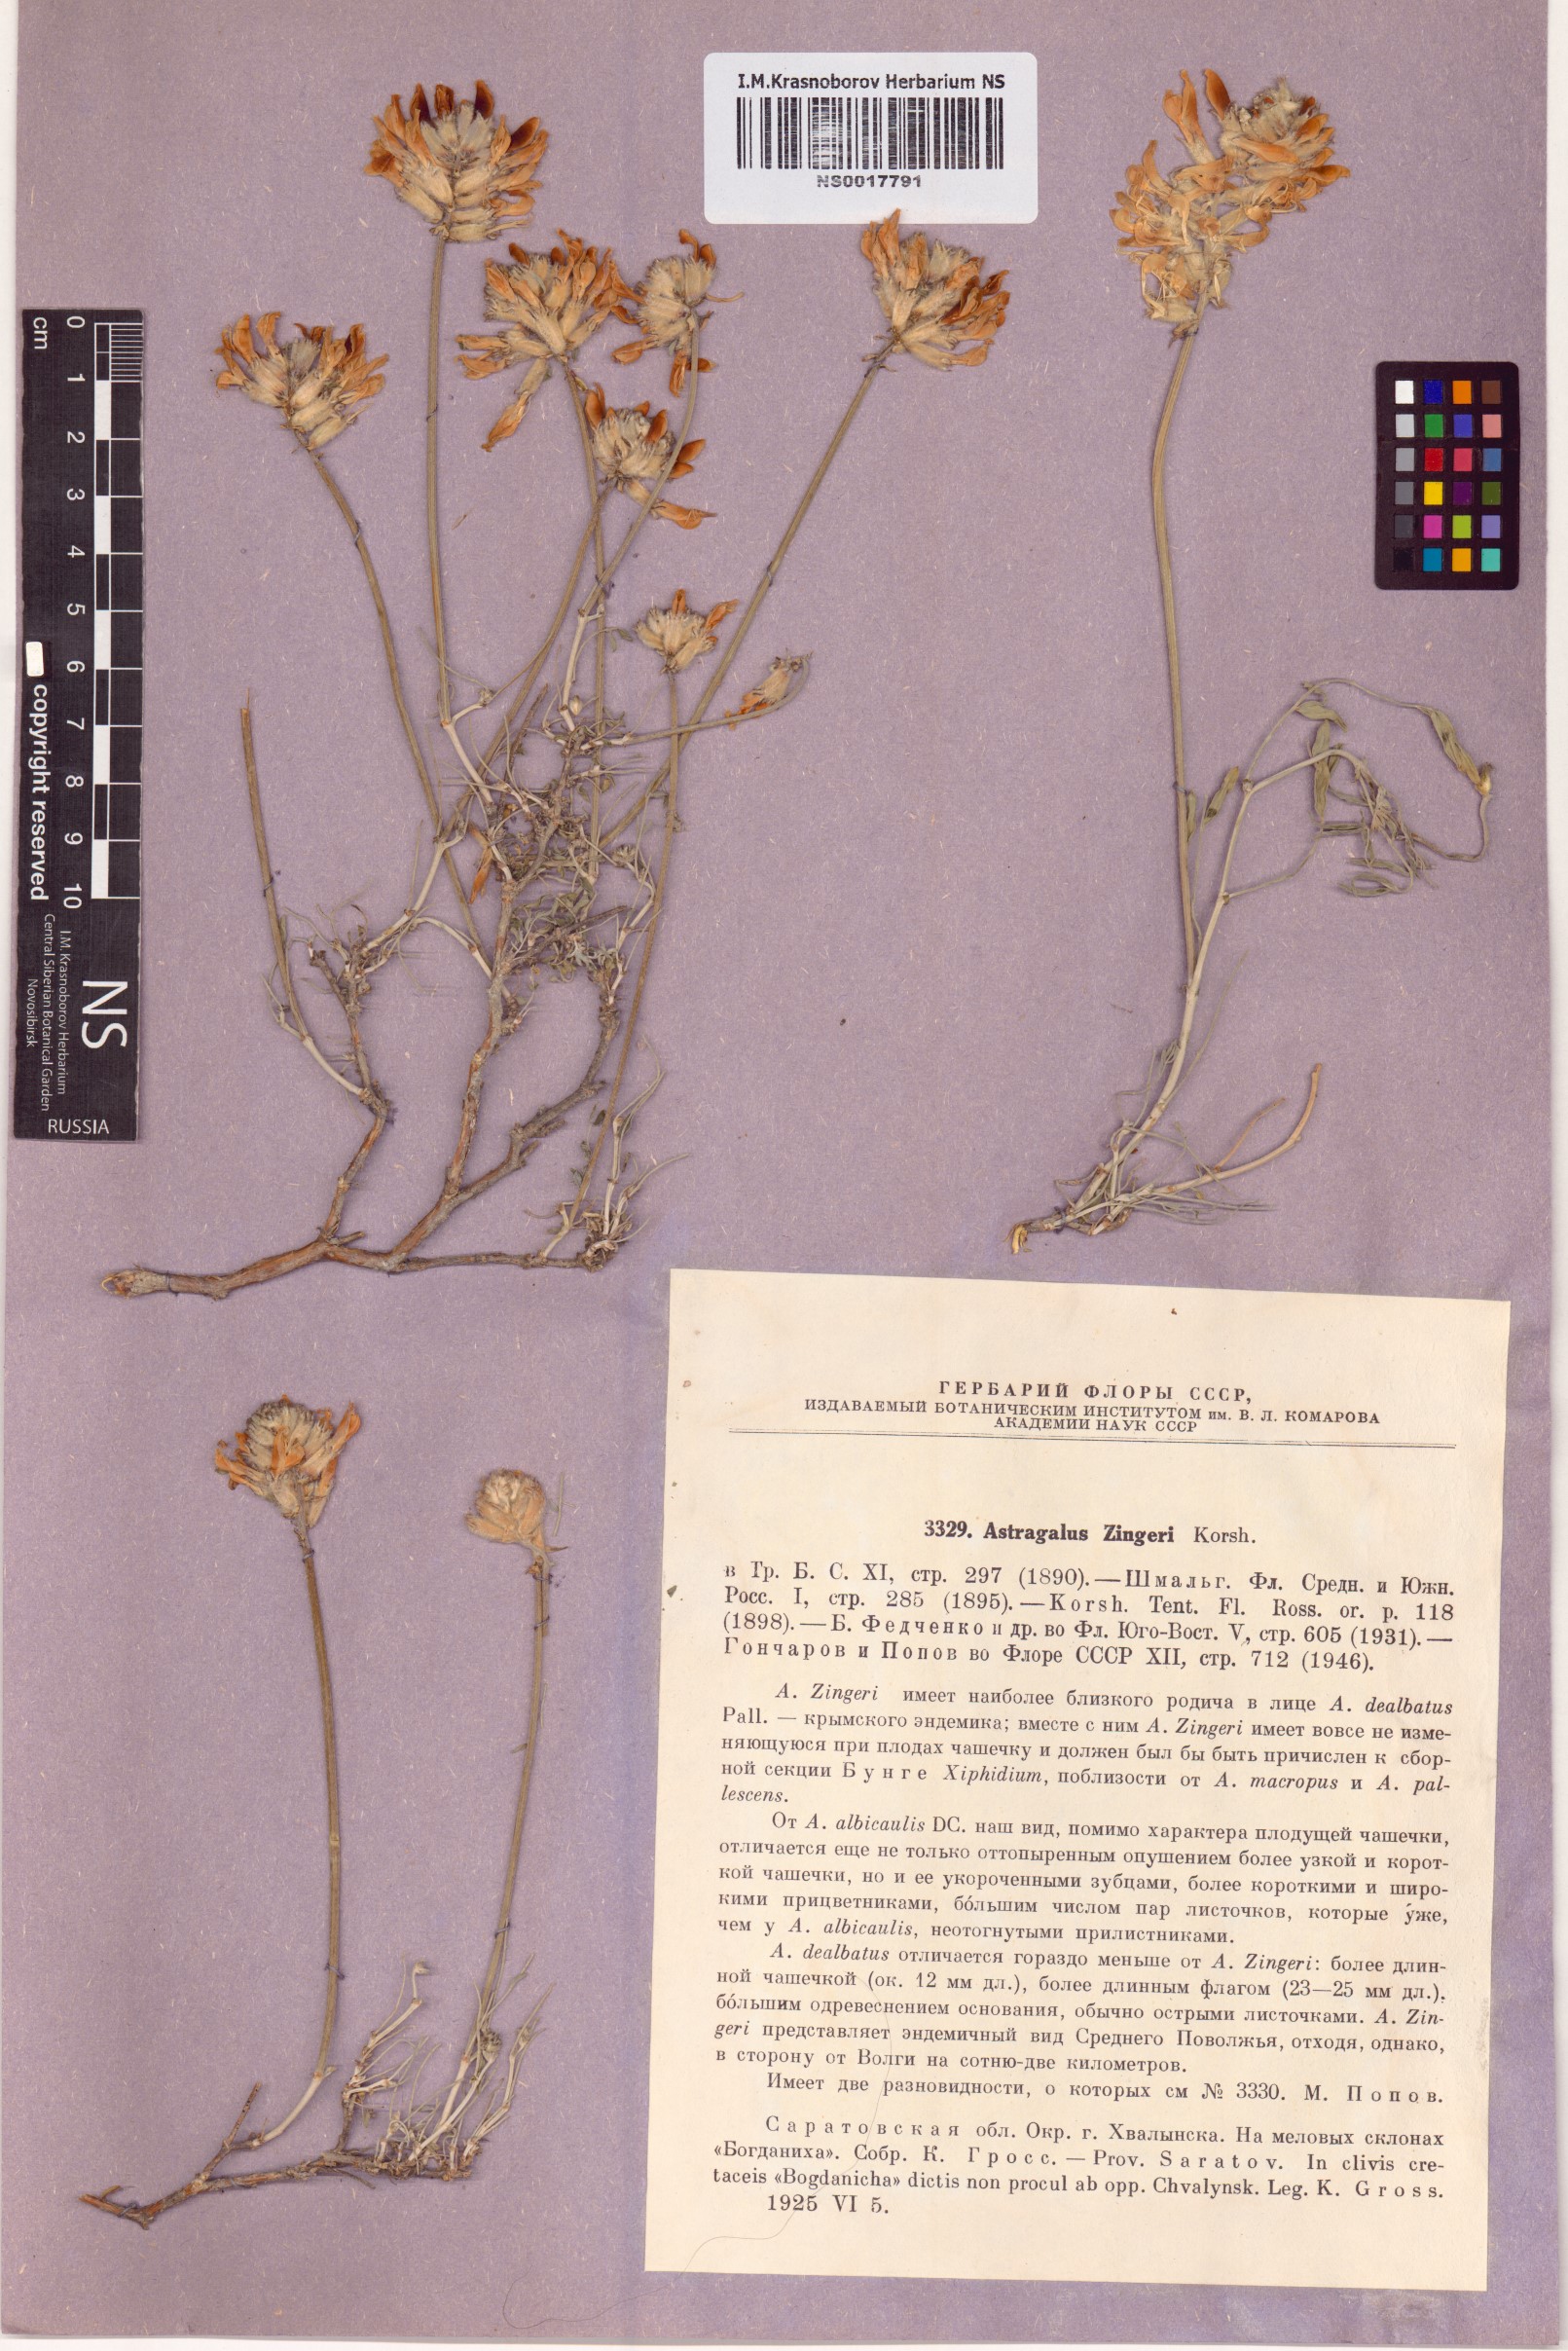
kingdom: Plantae
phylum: Tracheophyta
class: Magnoliopsida
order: Fabales
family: Fabaceae
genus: Astragalus
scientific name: Astragalus zingeri
